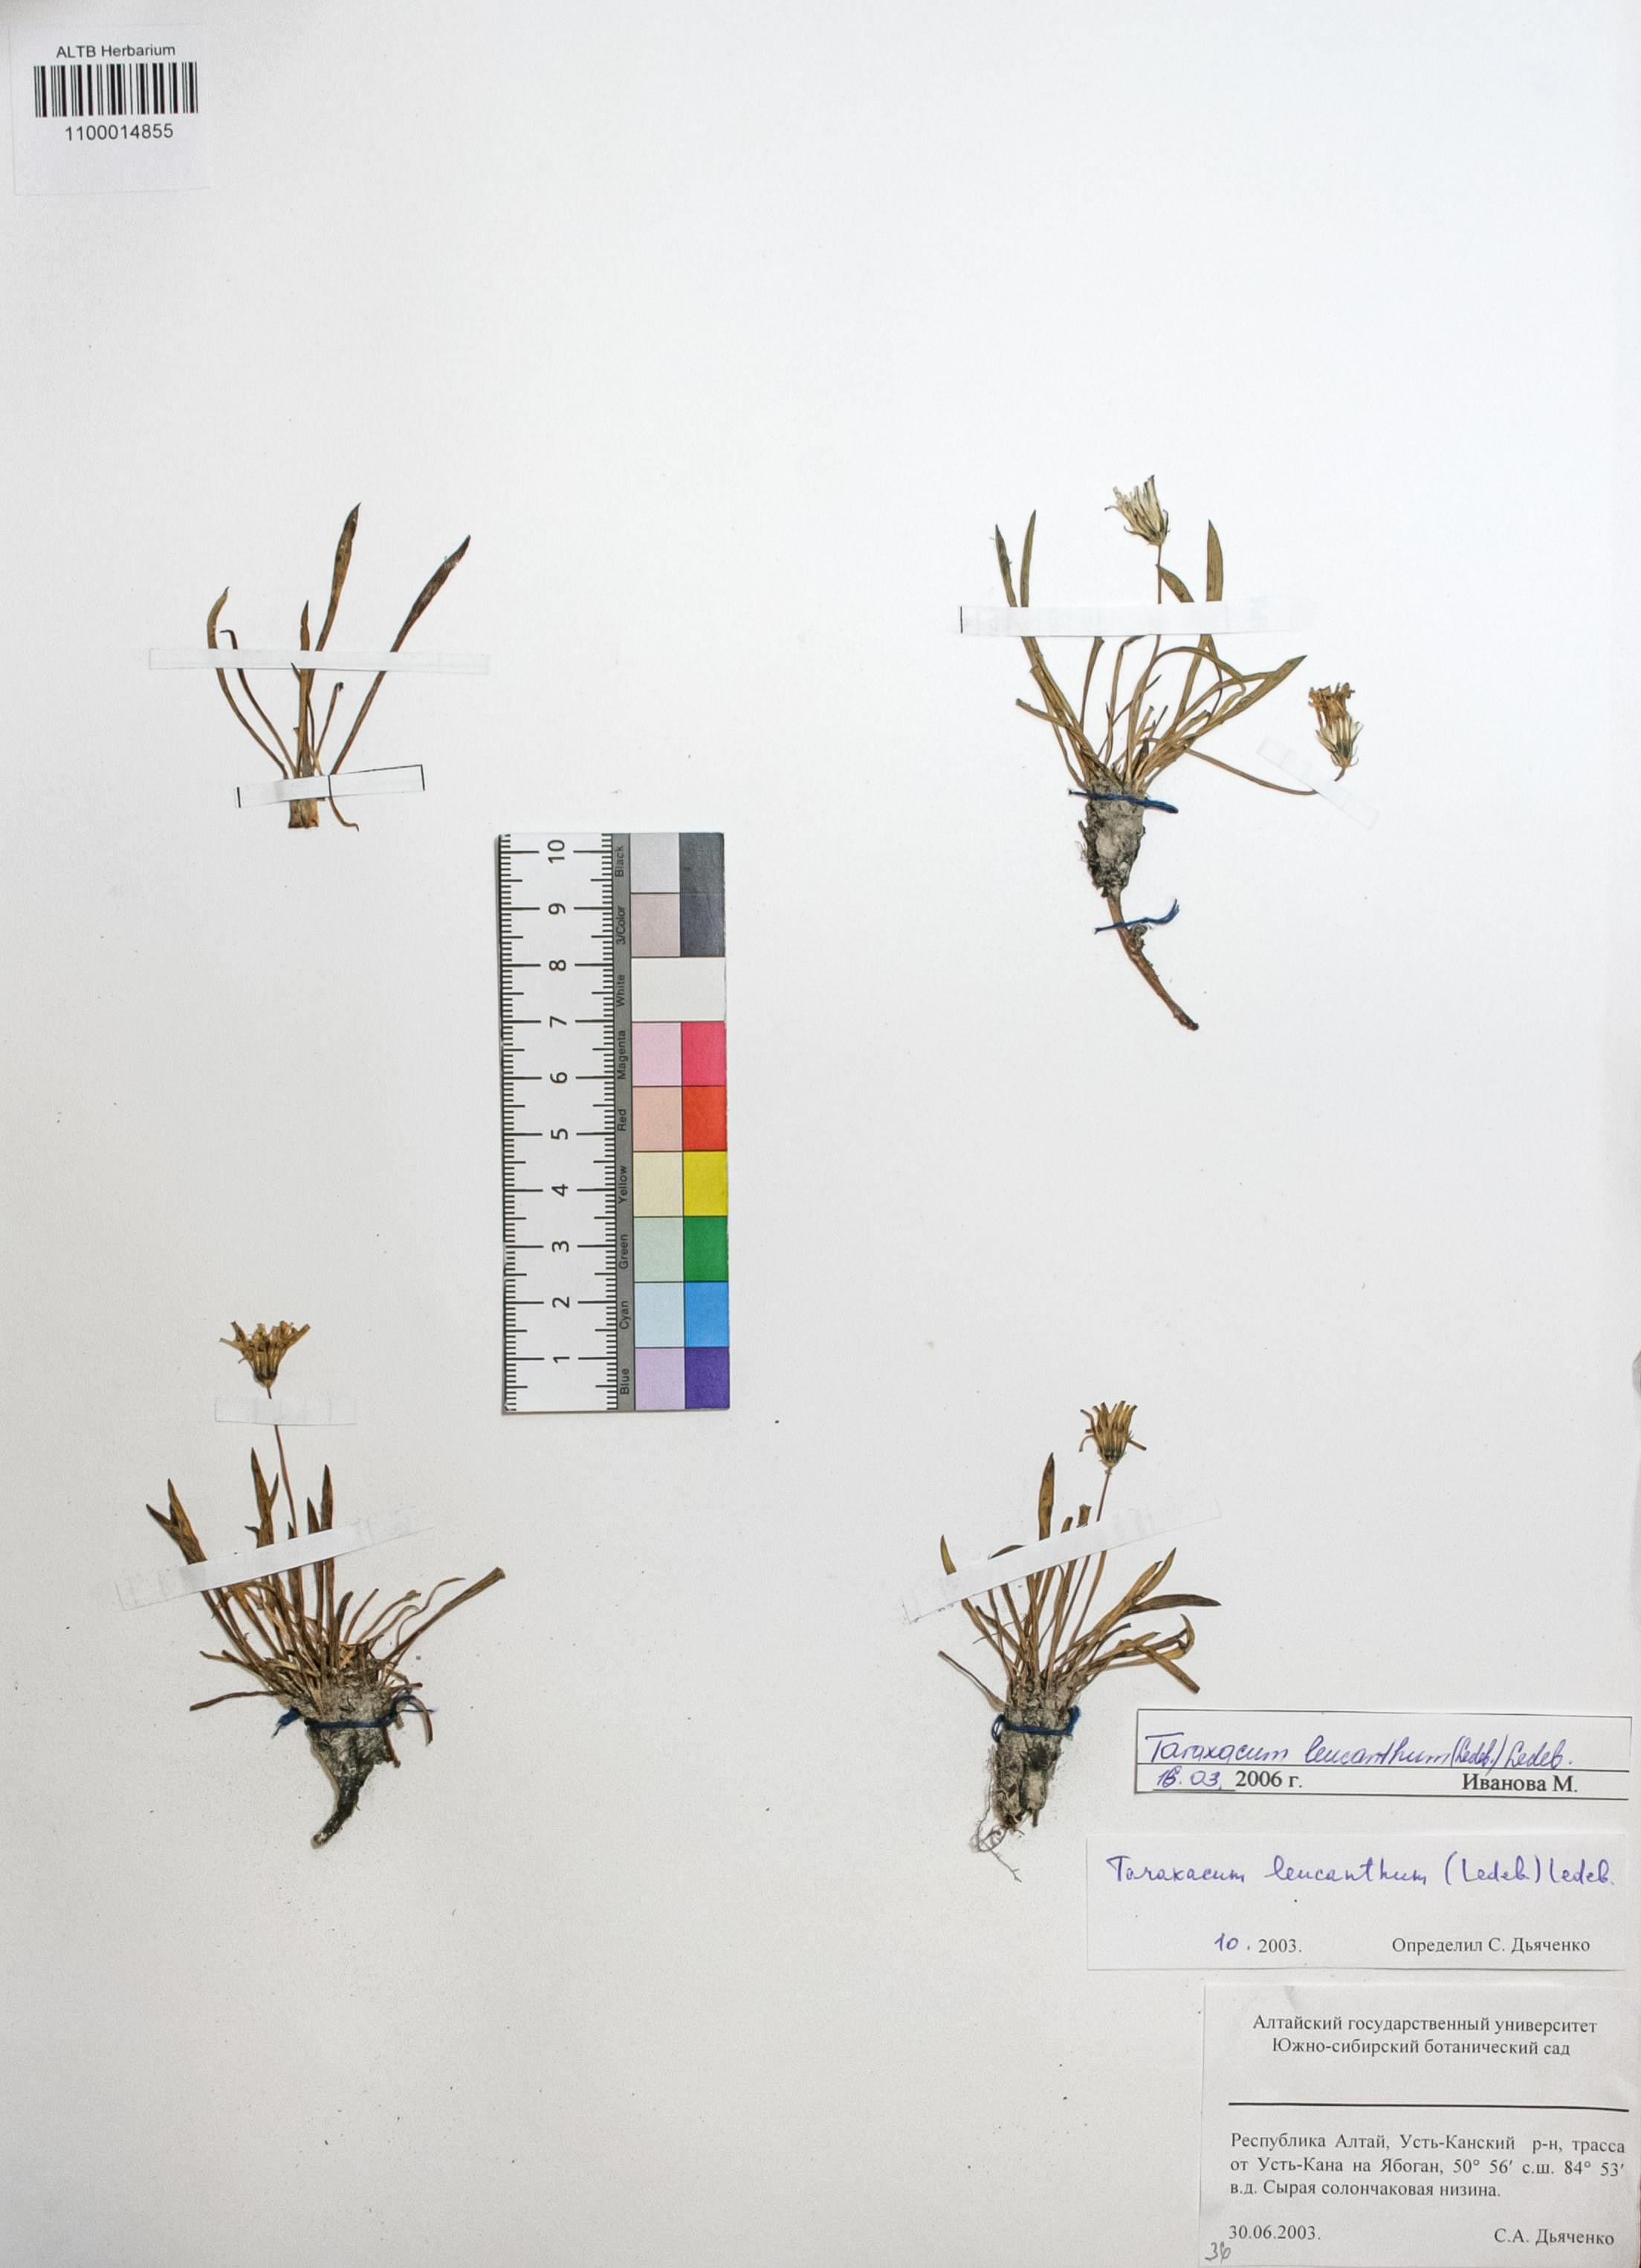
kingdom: Plantae
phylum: Tracheophyta
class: Magnoliopsida
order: Asterales
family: Asteraceae
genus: Taraxacum
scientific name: Taraxacum leucanthum
